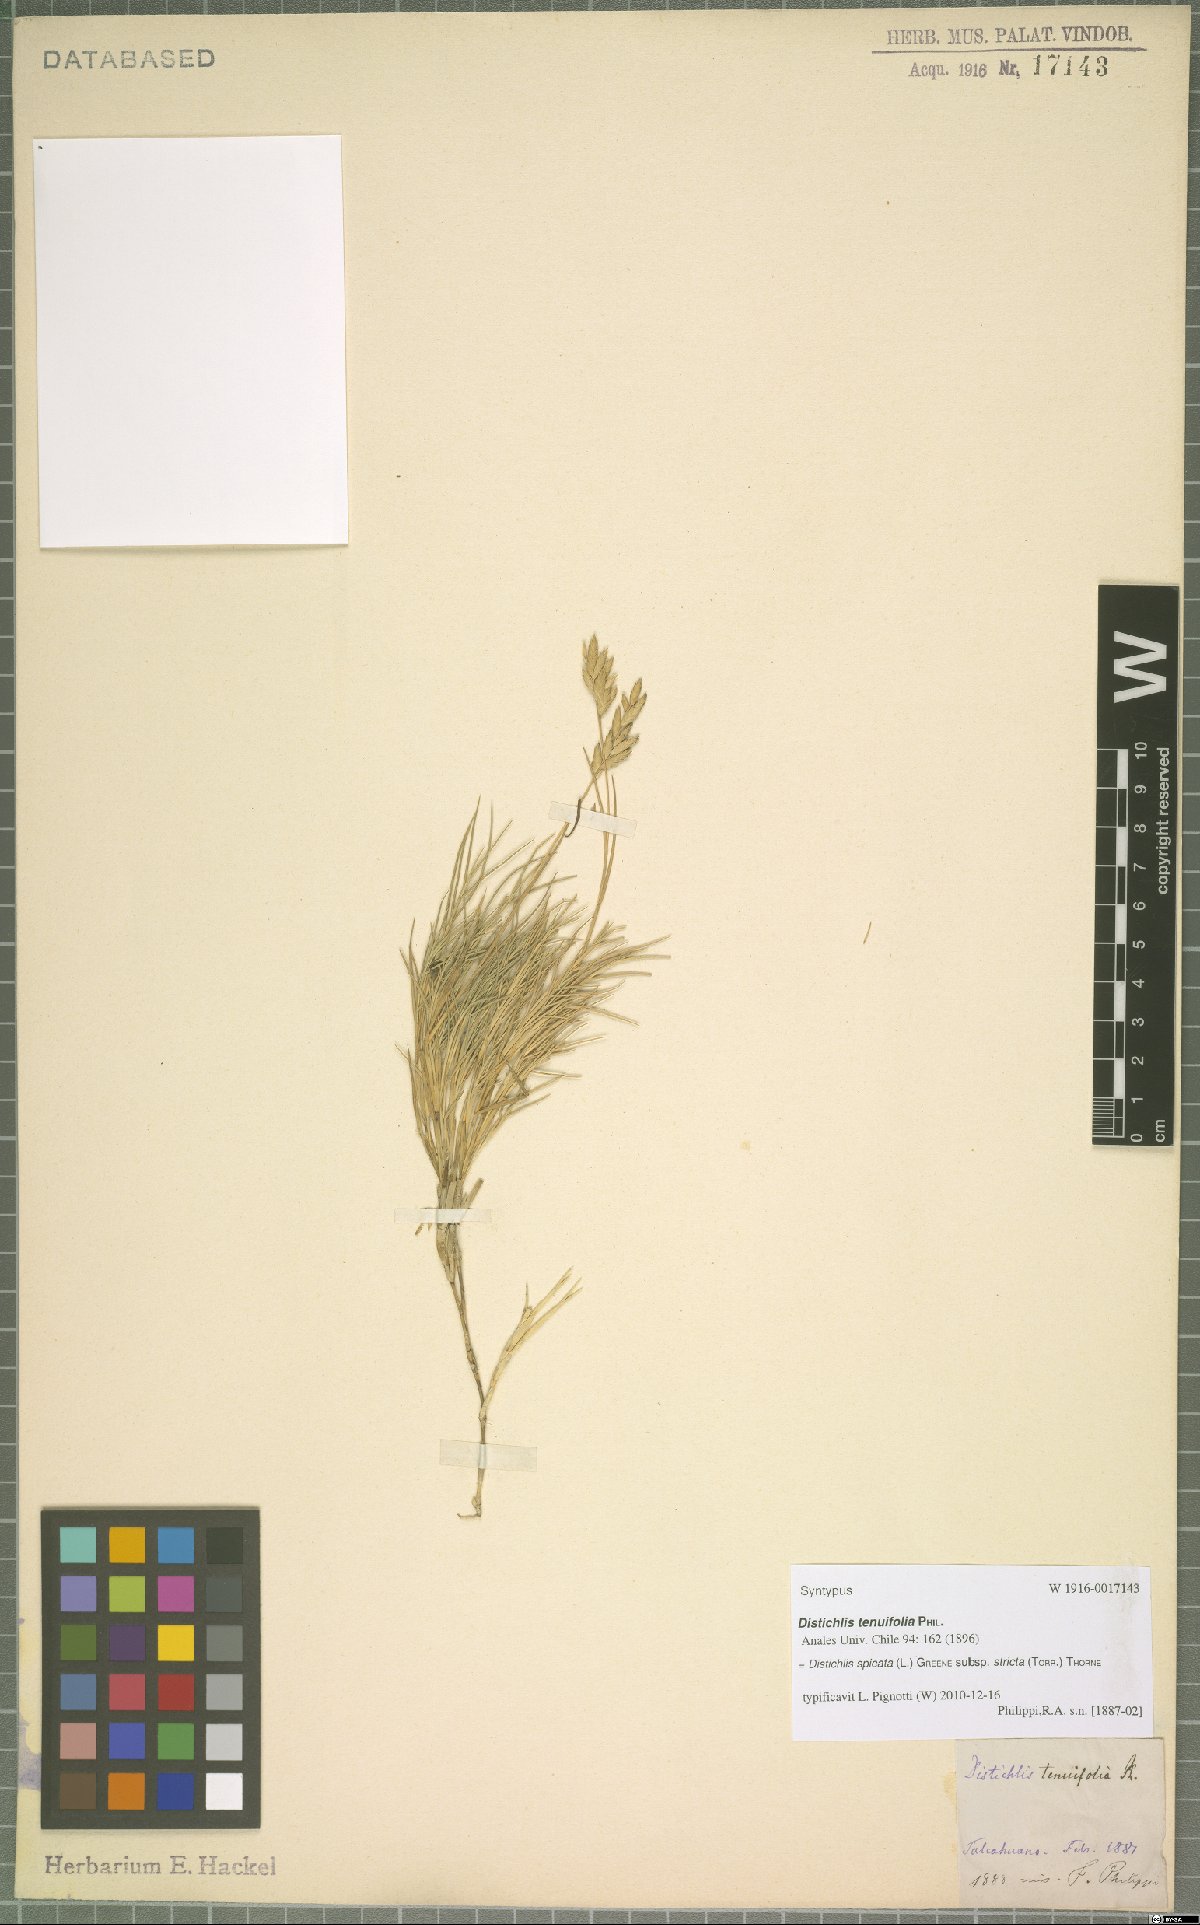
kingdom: Plantae
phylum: Tracheophyta
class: Liliopsida
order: Poales
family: Poaceae
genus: Distichlis
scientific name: Distichlis spicata
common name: Saltgrass
